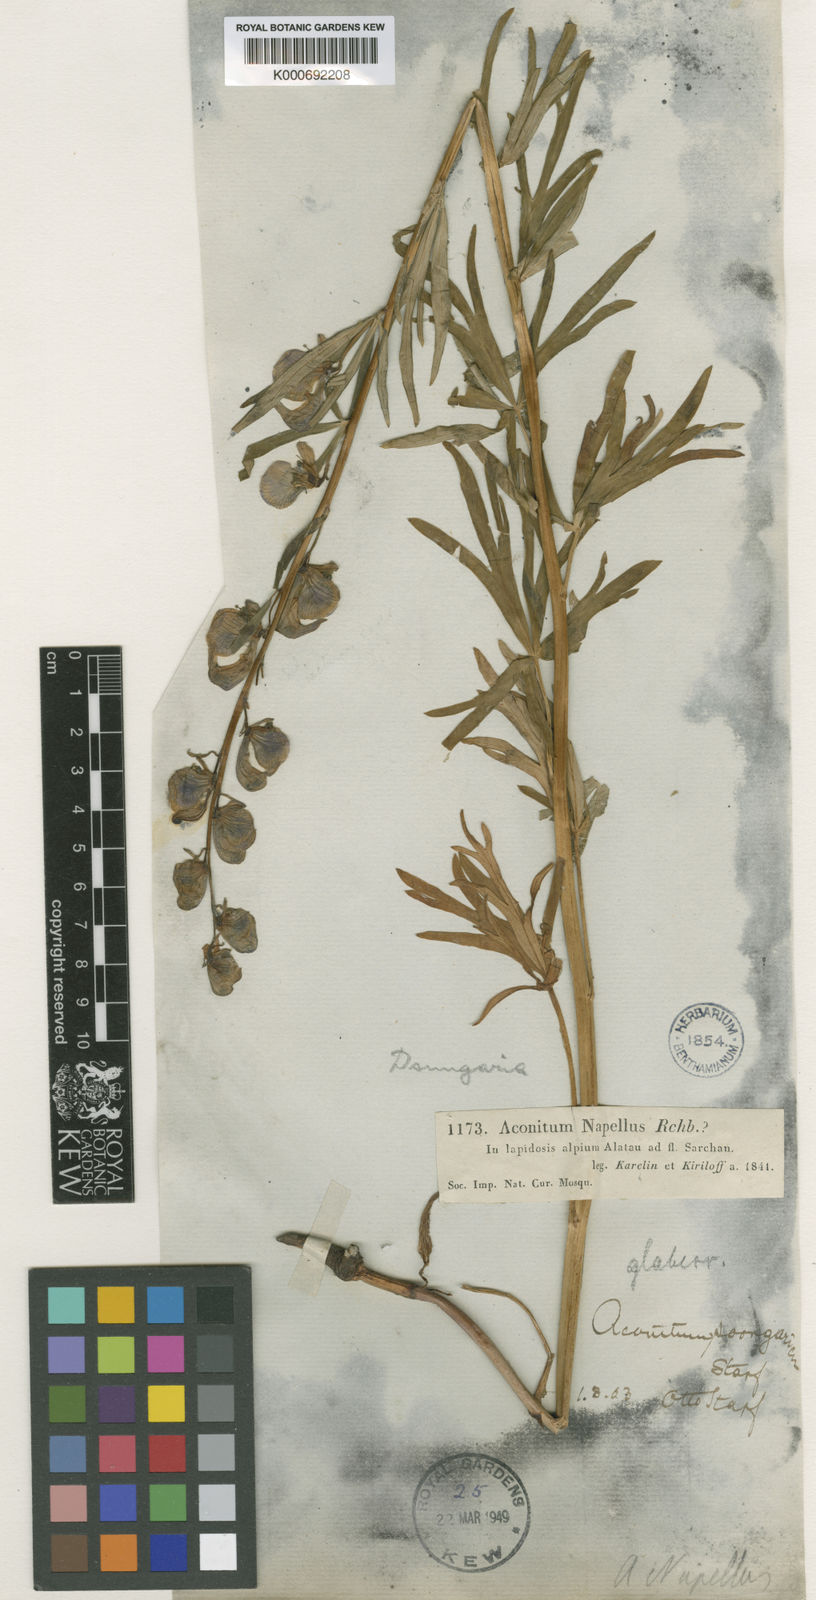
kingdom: Plantae
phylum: Tracheophyta
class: Magnoliopsida
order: Ranunculales
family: Ranunculaceae
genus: Aconitum
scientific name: Aconitum soongaricum
